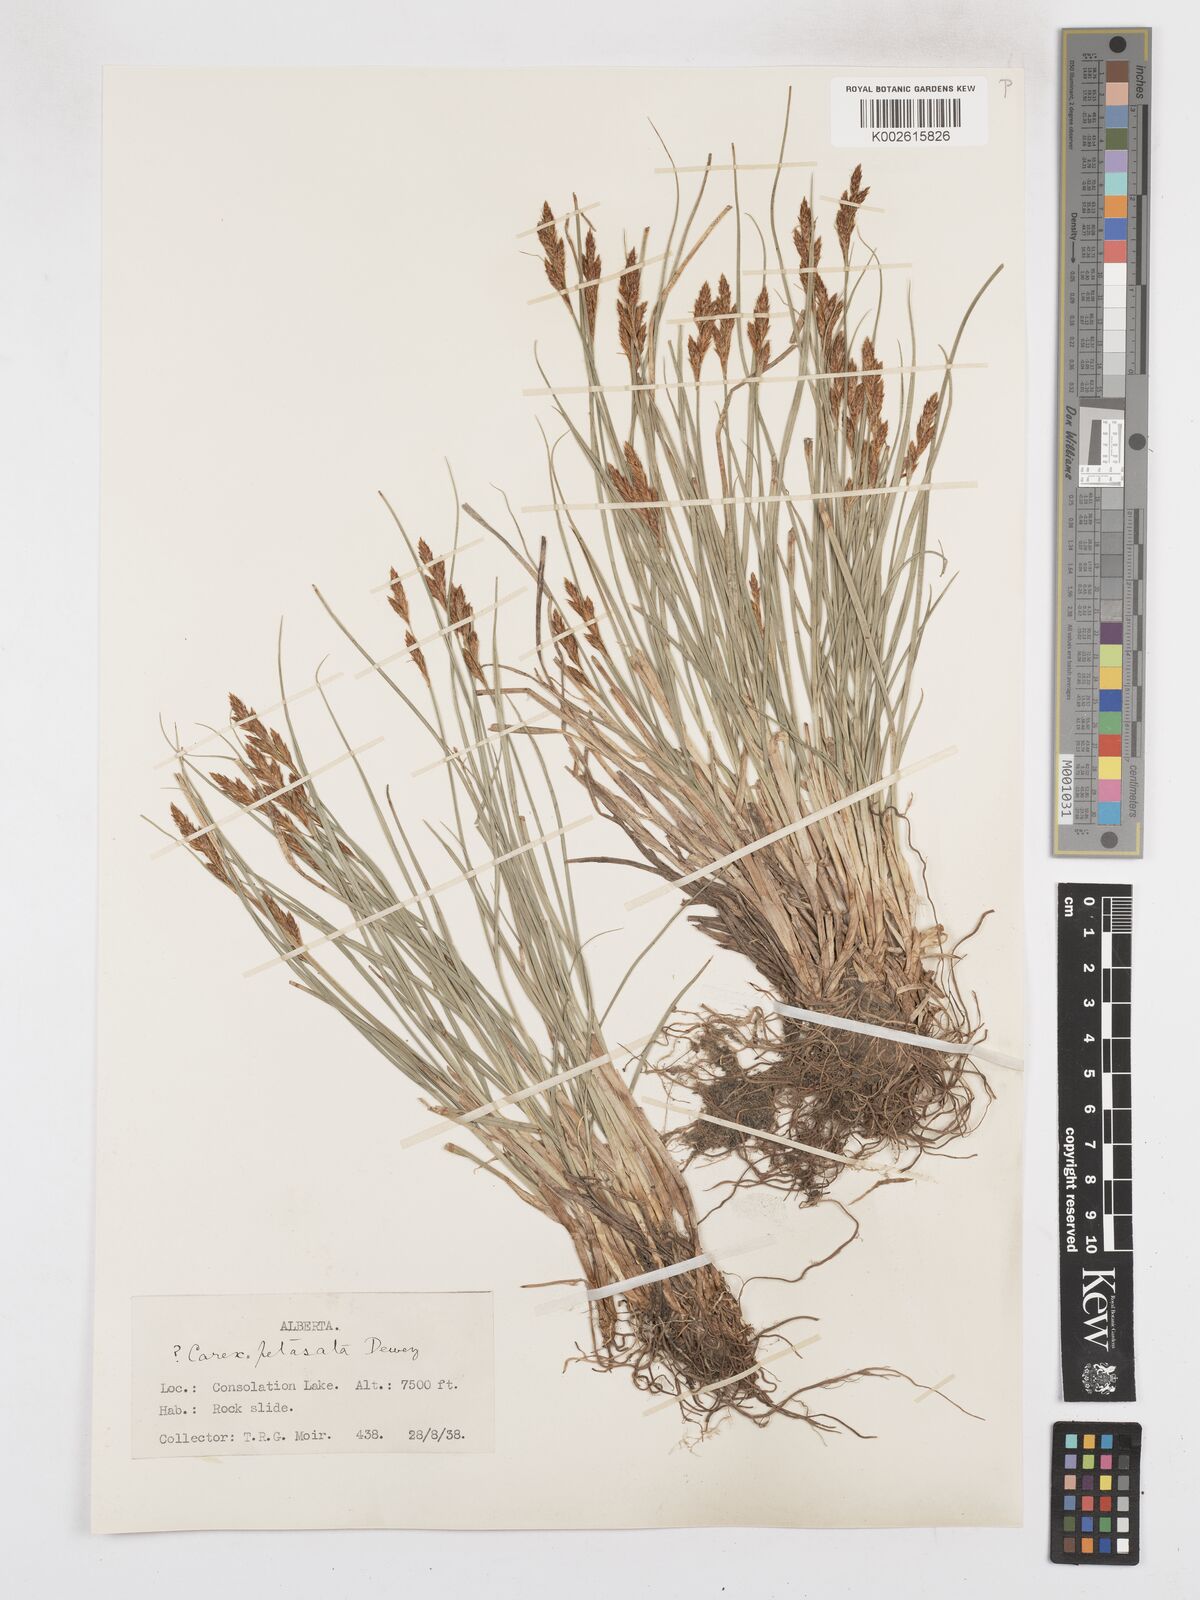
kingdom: Plantae
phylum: Tracheophyta
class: Liliopsida
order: Poales
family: Cyperaceae
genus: Carex
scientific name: Carex petasata
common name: Liddon's sedge
